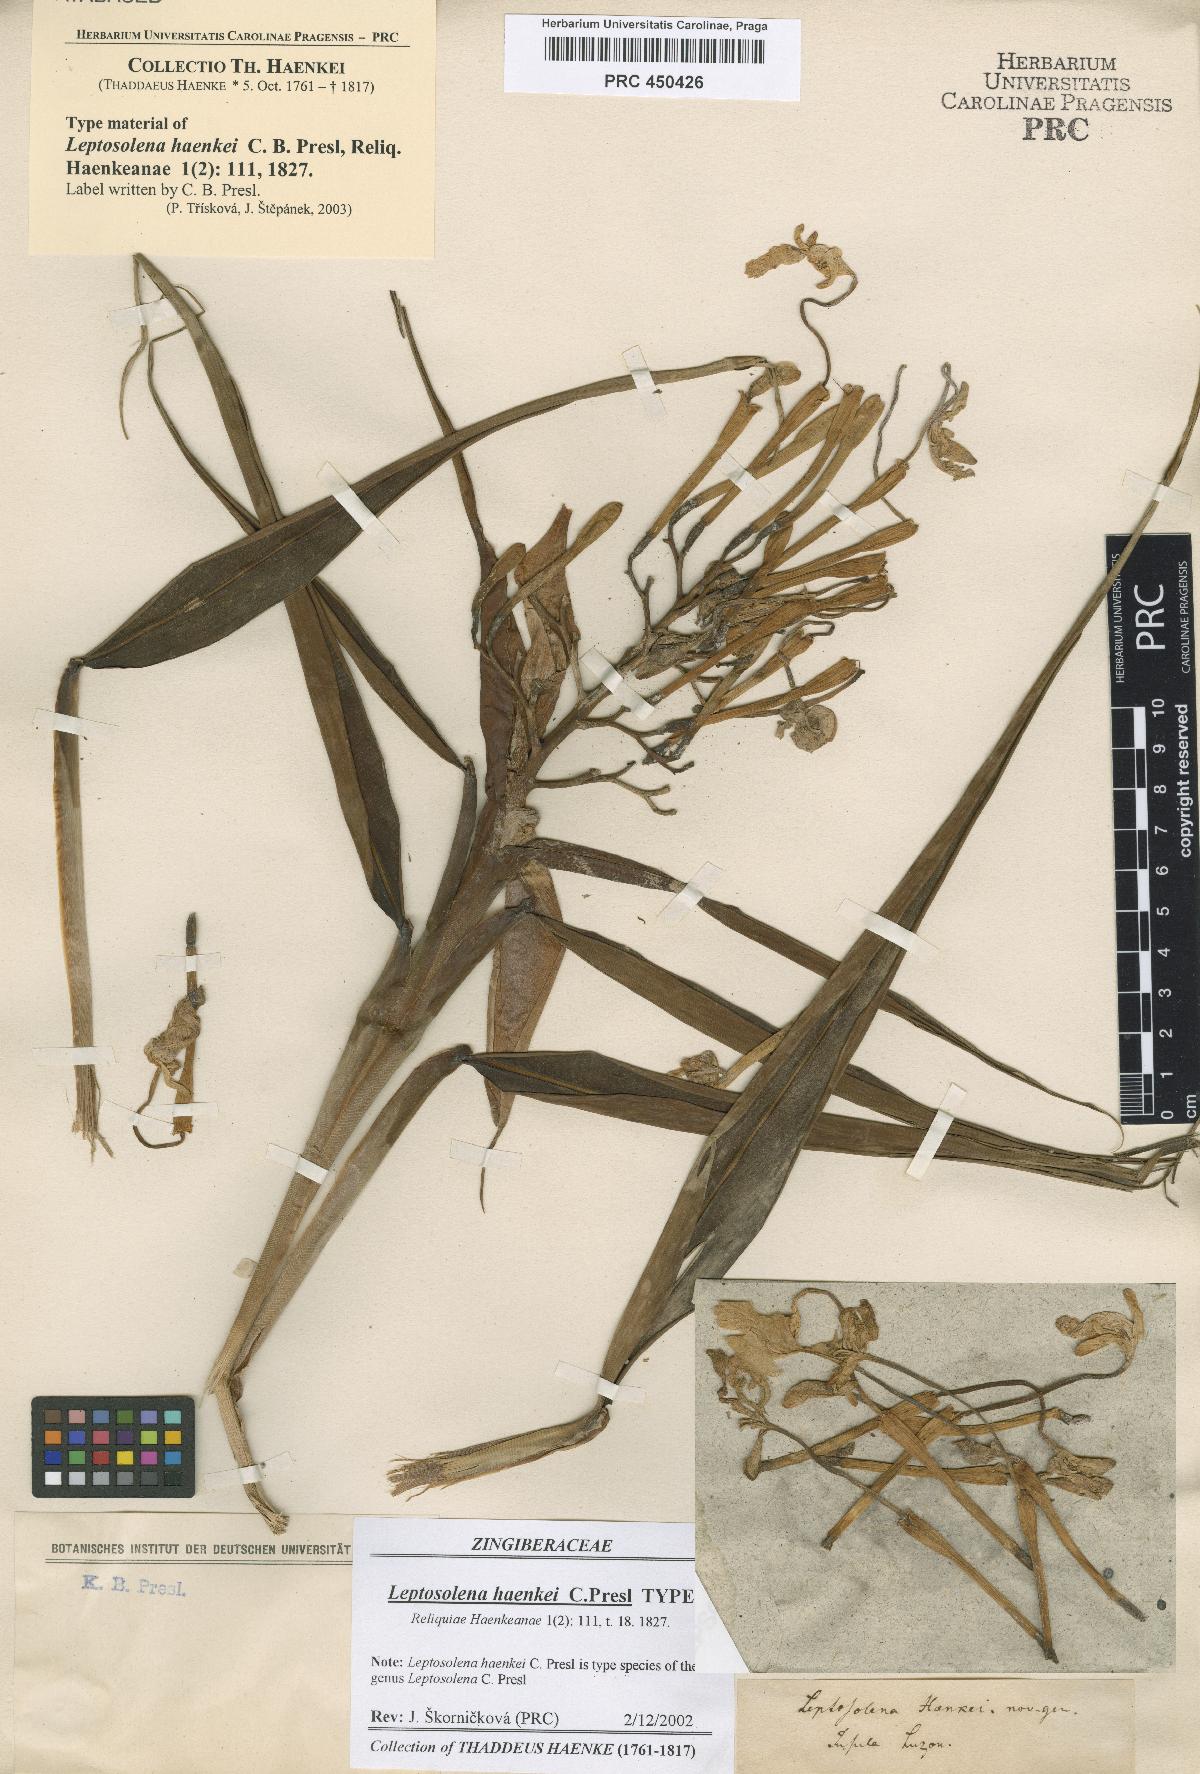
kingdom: Plantae
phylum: Tracheophyta
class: Liliopsida
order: Zingiberales
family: Zingiberaceae
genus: Leptosolena
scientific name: Leptosolena haenkei
